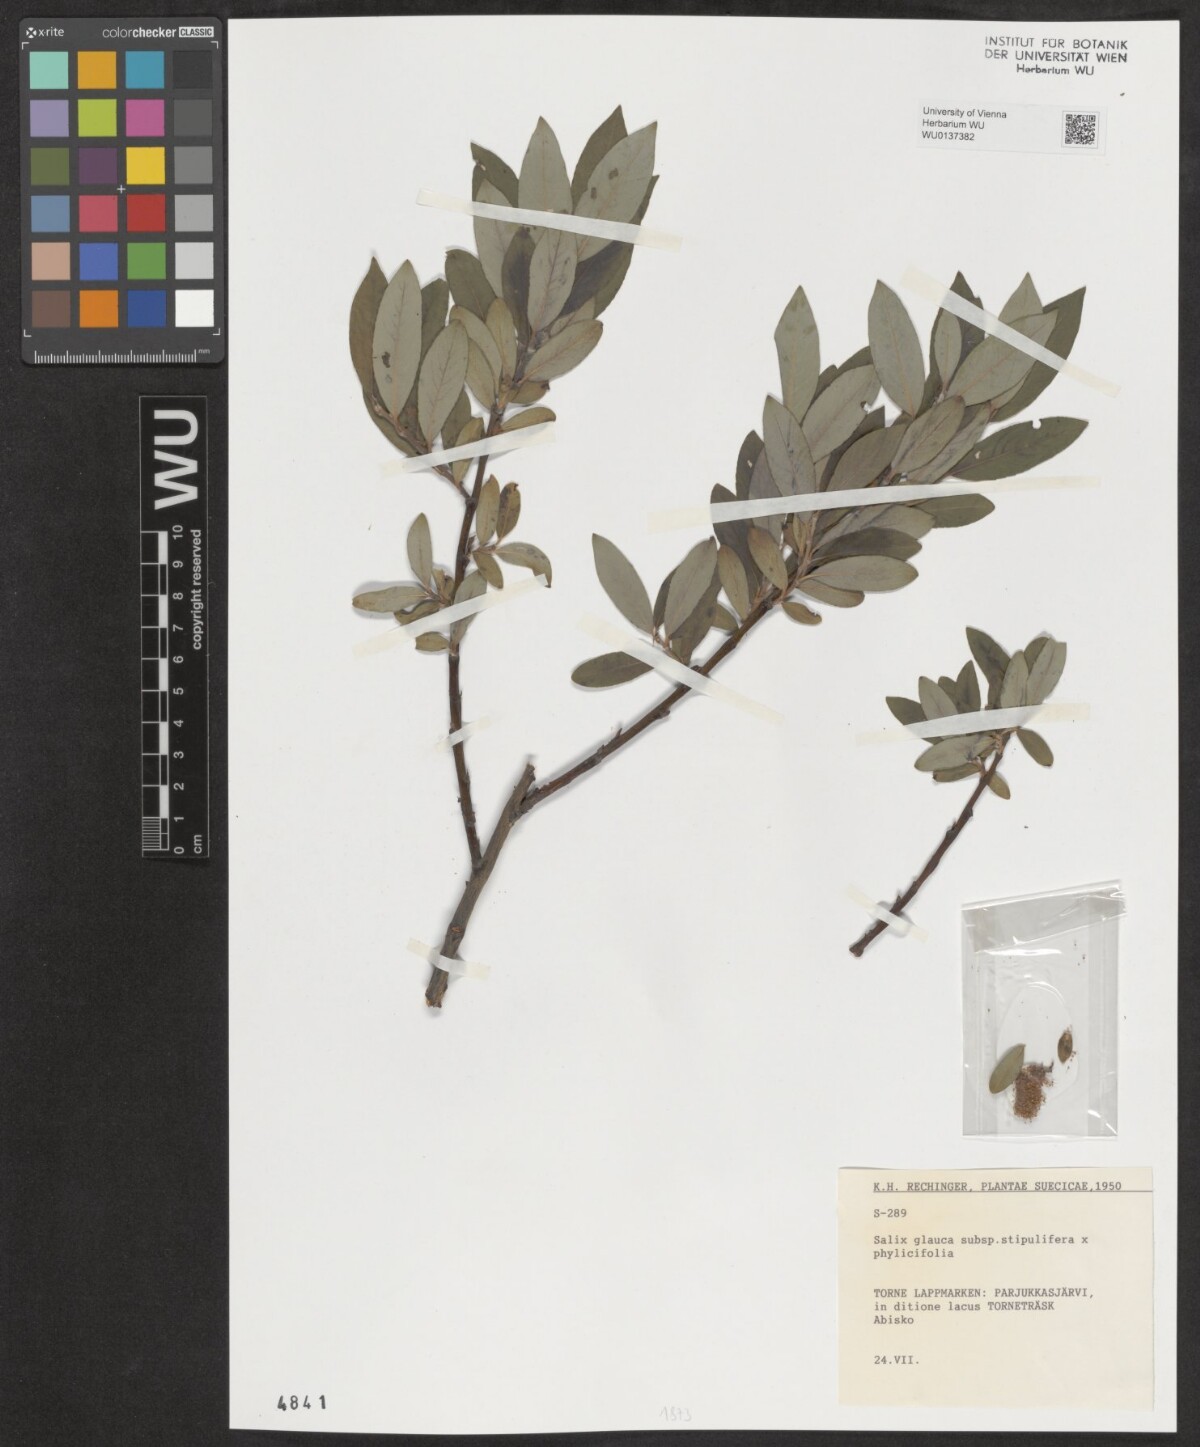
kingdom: Plantae
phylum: Tracheophyta
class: Magnoliopsida
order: Malpighiales
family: Salicaceae
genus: Salix
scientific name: Salix glauca
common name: Glaucous willow
